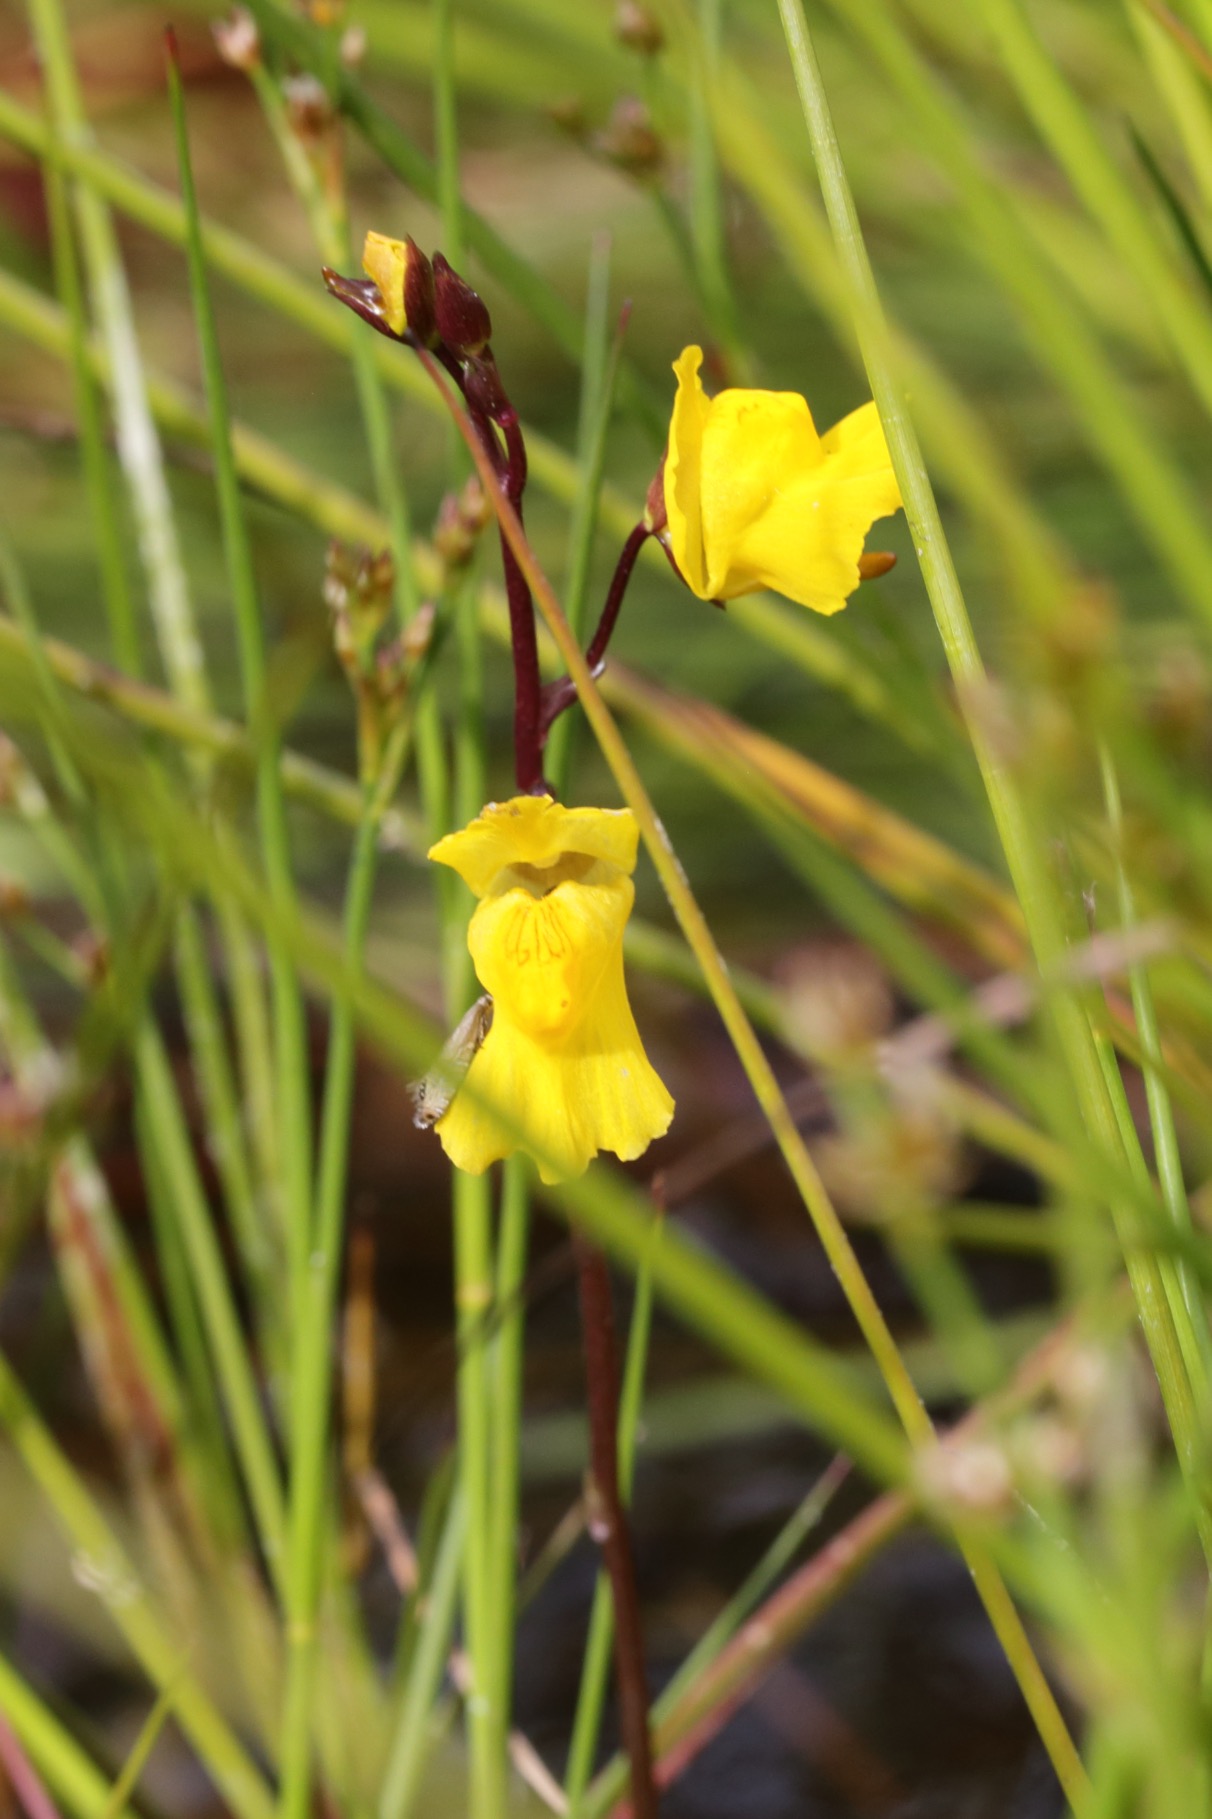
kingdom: Plantae
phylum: Tracheophyta
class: Magnoliopsida
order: Lamiales
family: Lentibulariaceae
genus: Utricularia
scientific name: Utricularia vulgaris
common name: Almindelig blærerod
